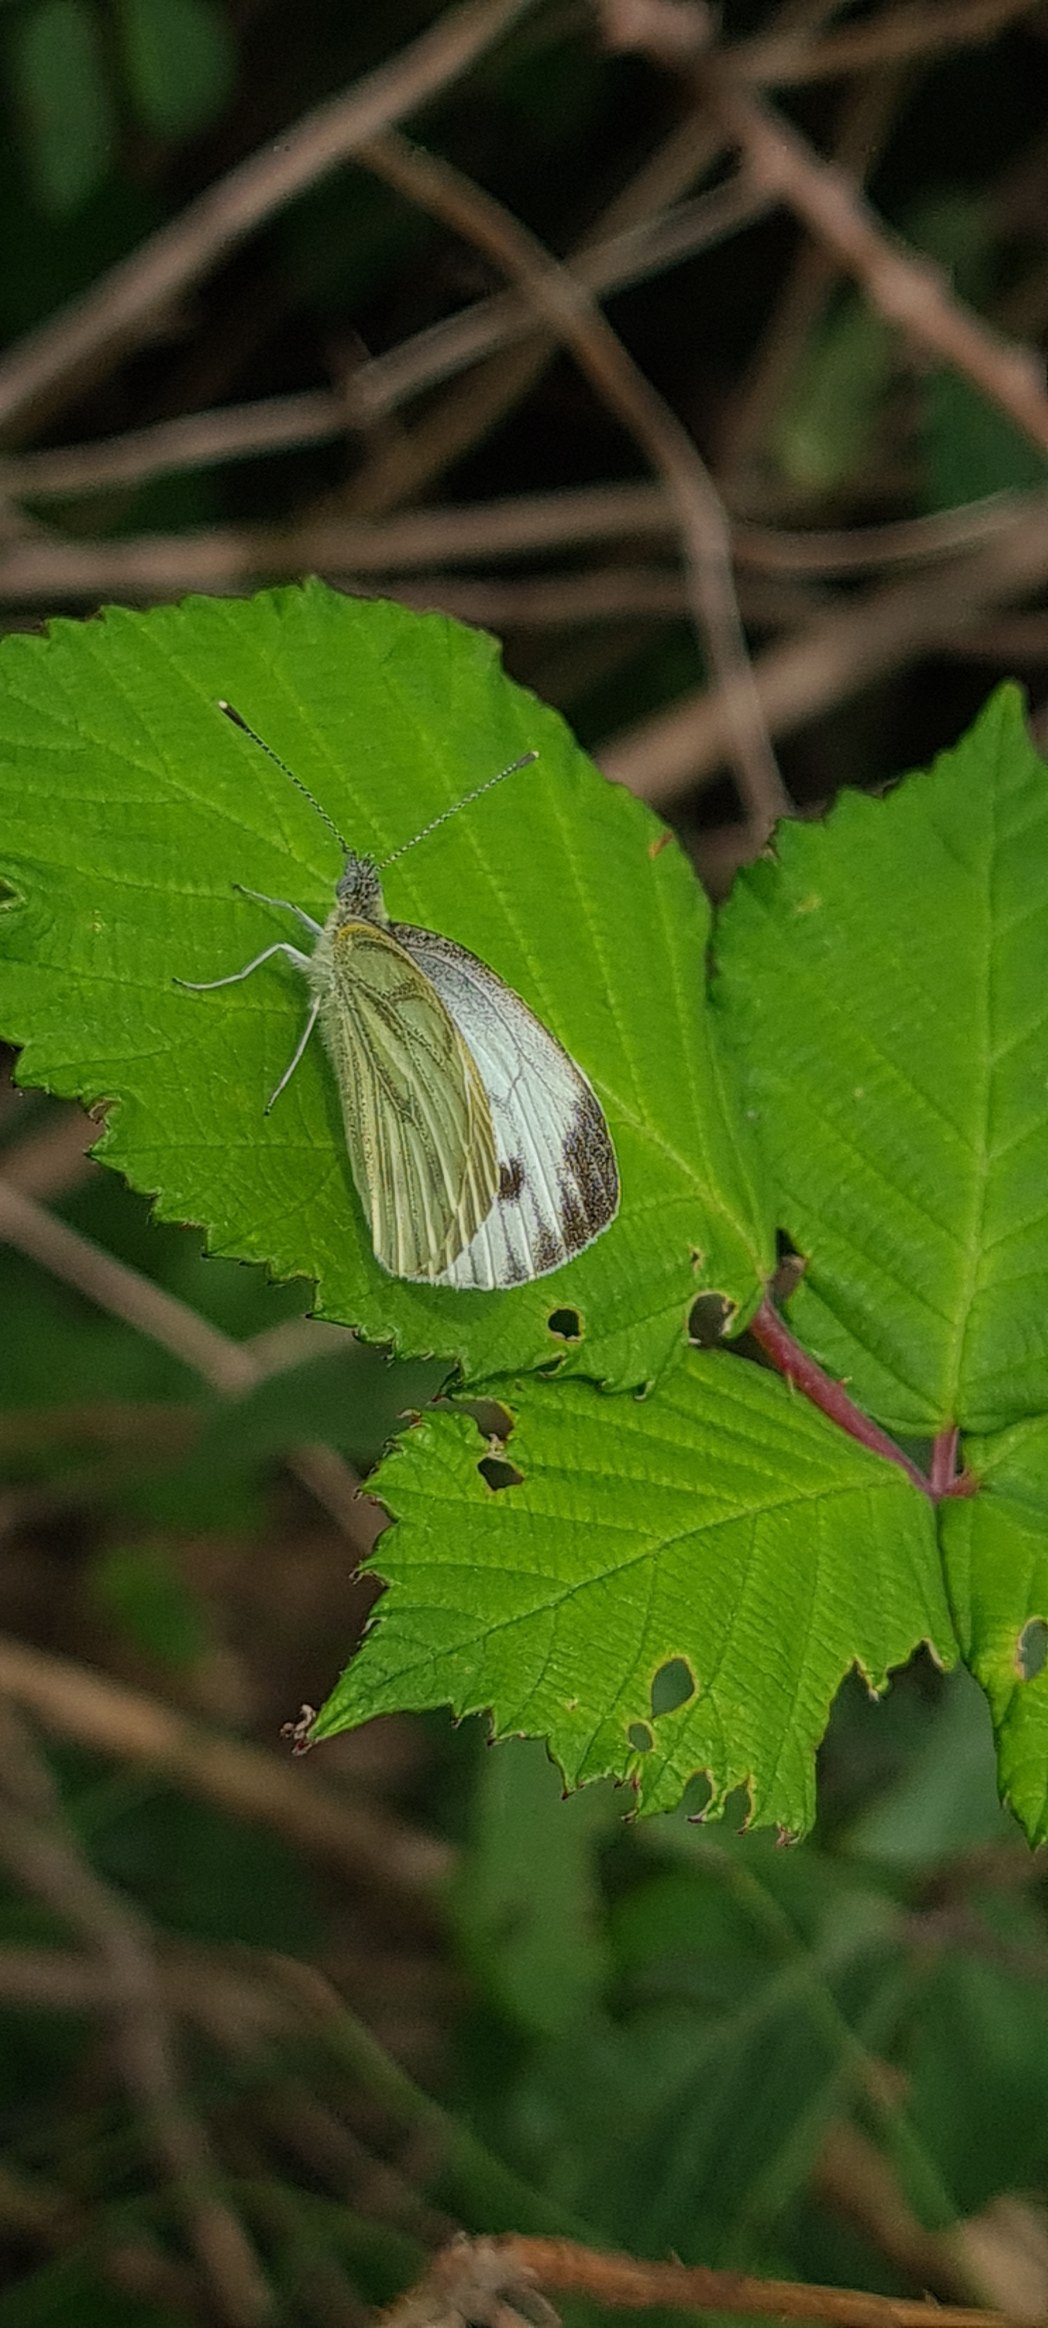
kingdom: Animalia
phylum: Arthropoda
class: Insecta
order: Lepidoptera
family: Pieridae
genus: Pieris
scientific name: Pieris napi
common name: Grønåret kålsommerfugl
